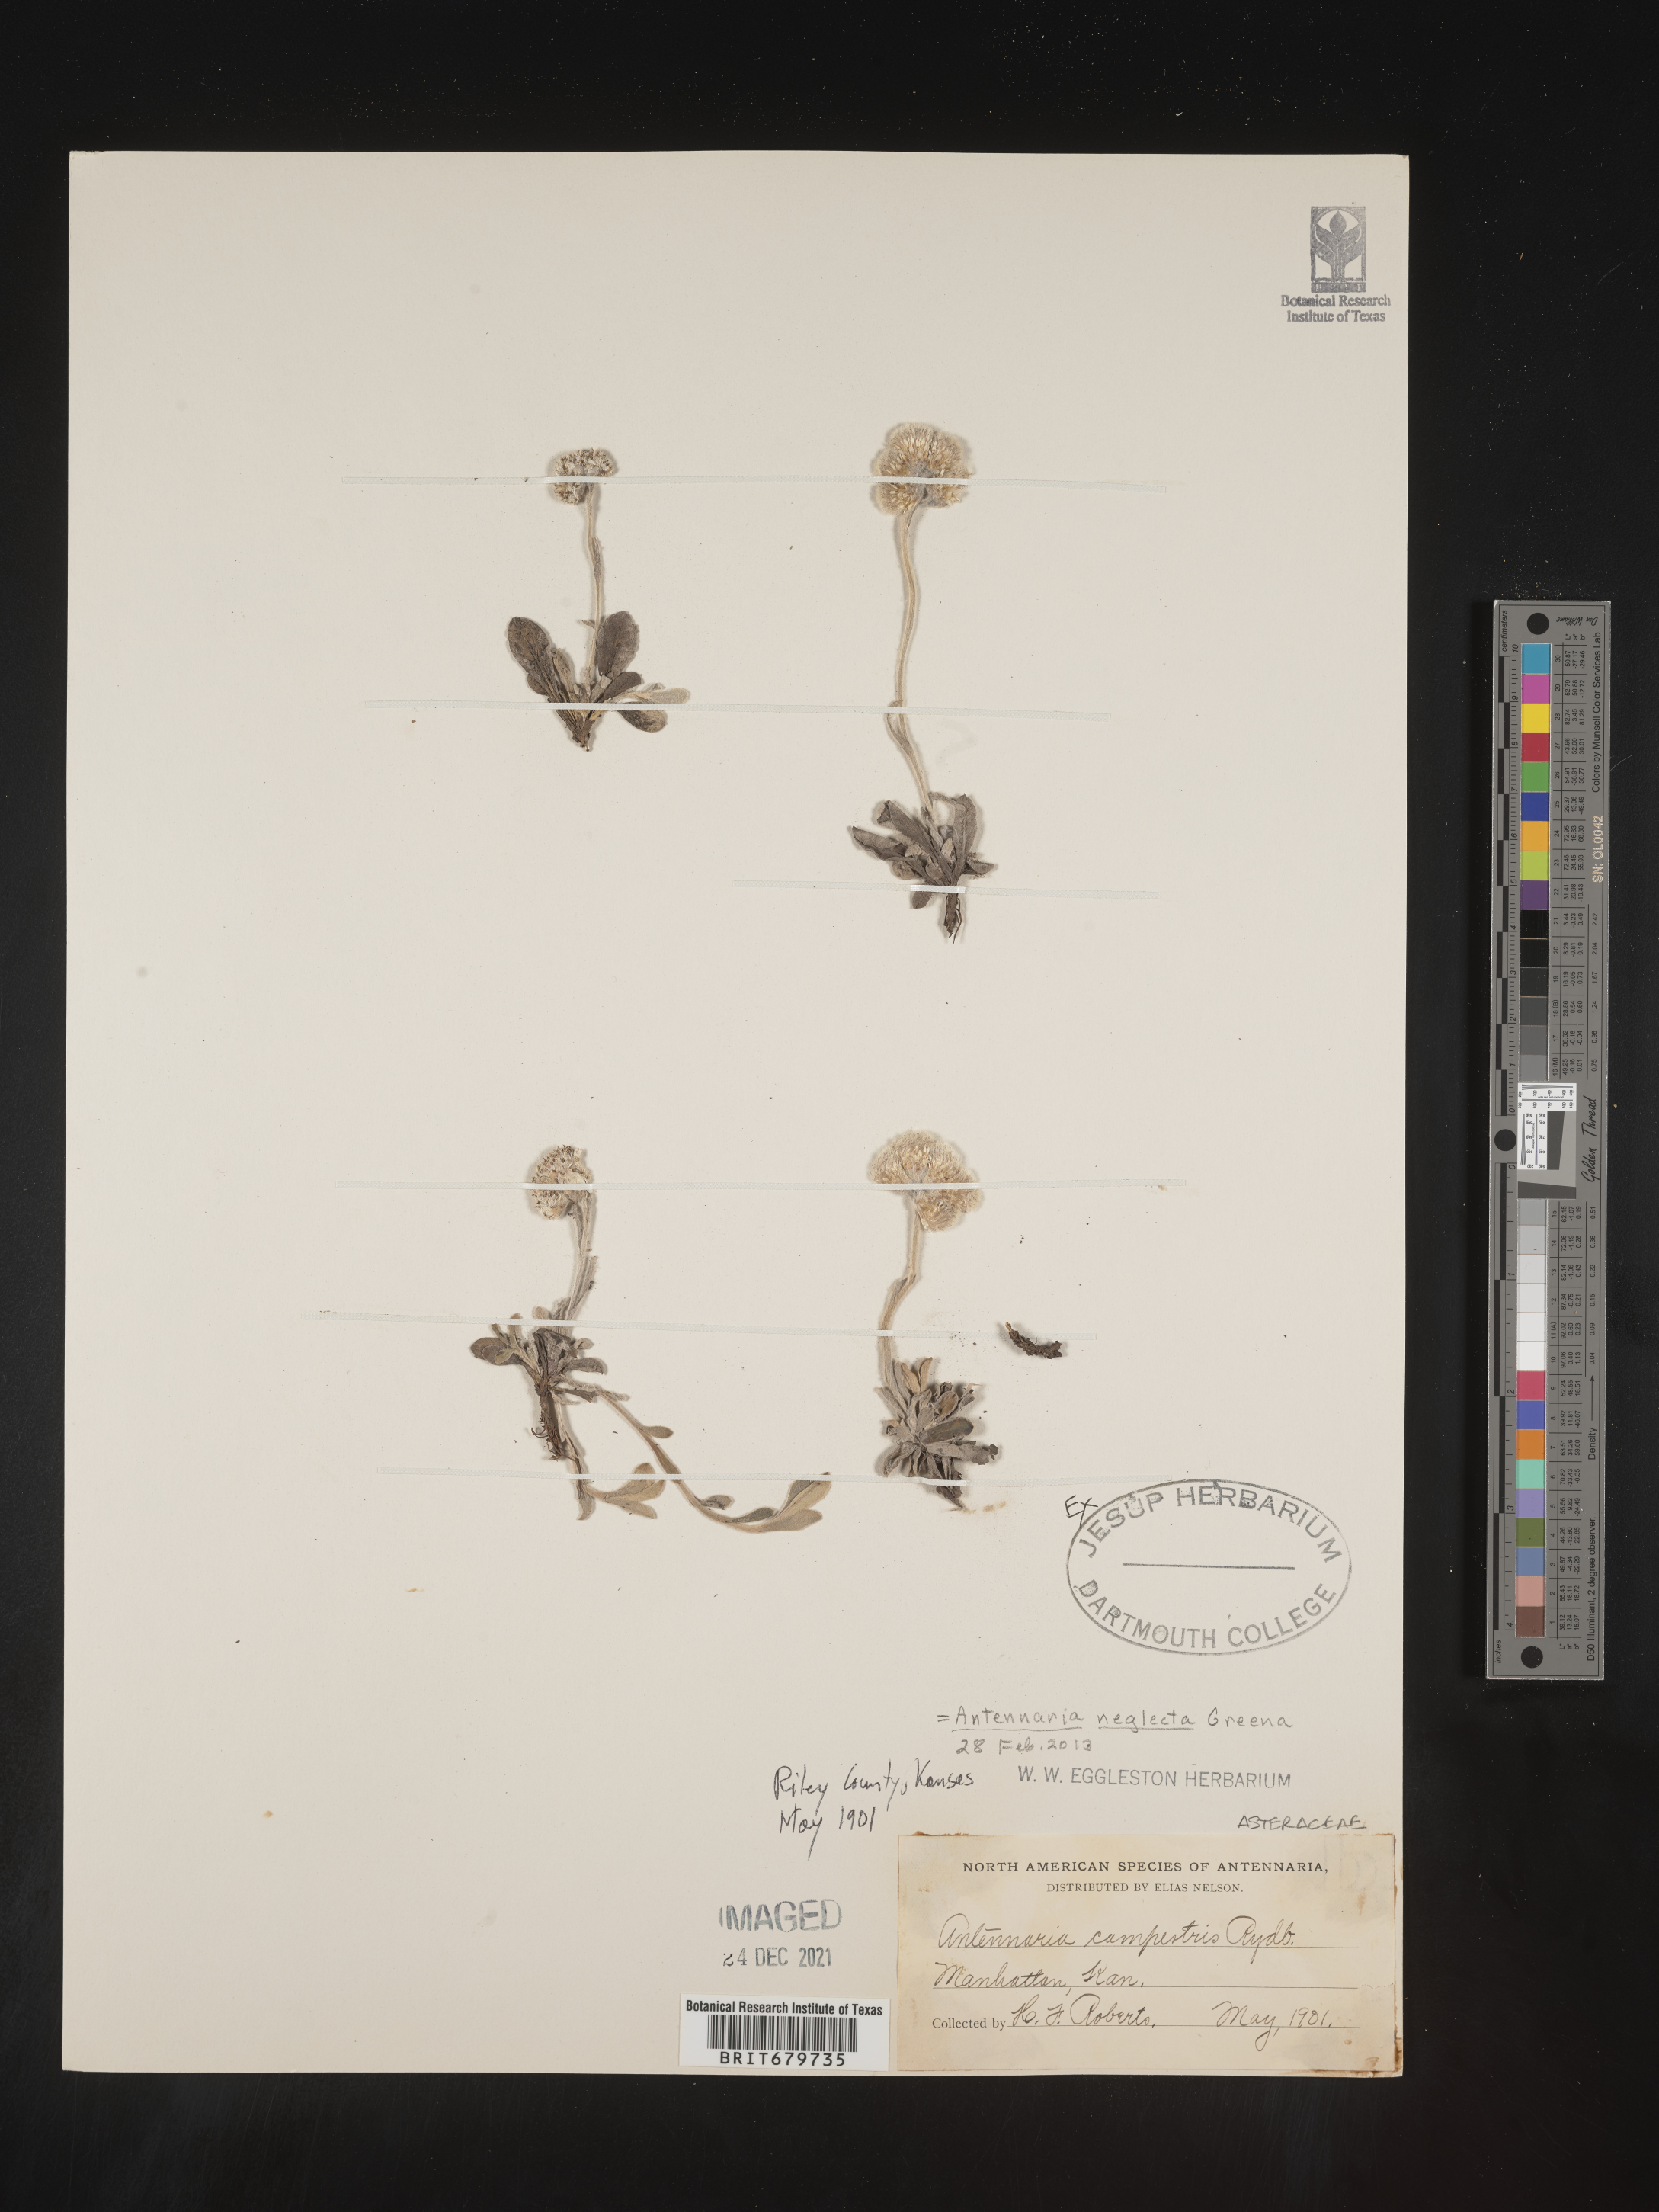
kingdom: Plantae
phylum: Tracheophyta
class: Magnoliopsida
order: Asterales
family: Asteraceae
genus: Antennaria
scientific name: Antennaria neglecta
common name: Field pussytoes
